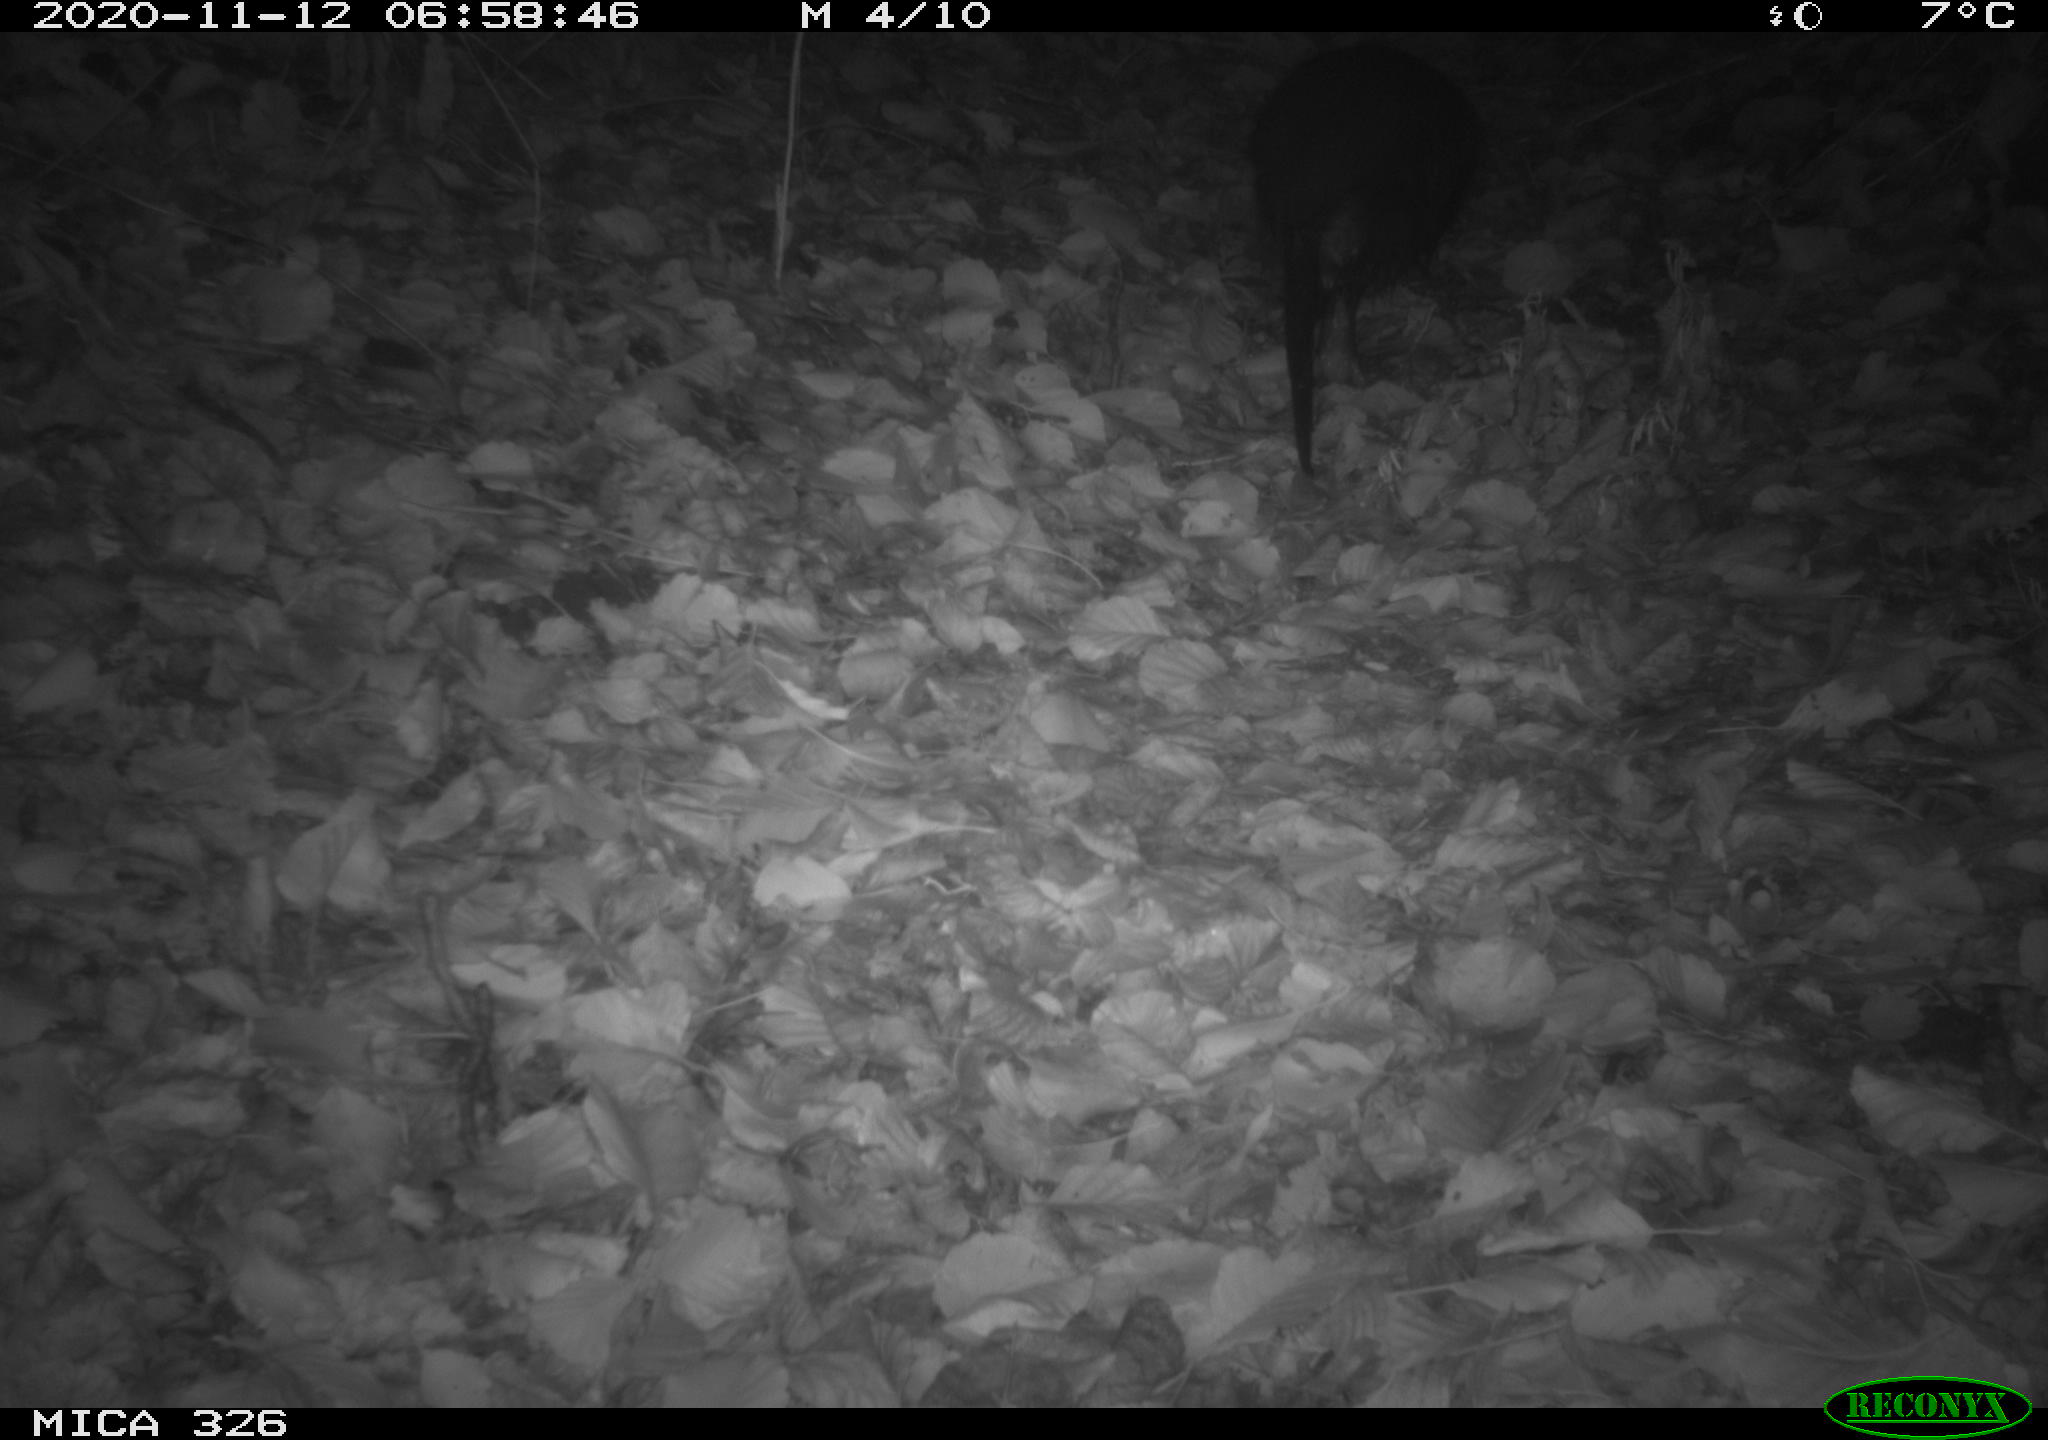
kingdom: Animalia
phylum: Chordata
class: Mammalia
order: Rodentia
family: Myocastoridae
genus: Myocastor
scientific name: Myocastor coypus
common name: Coypu
